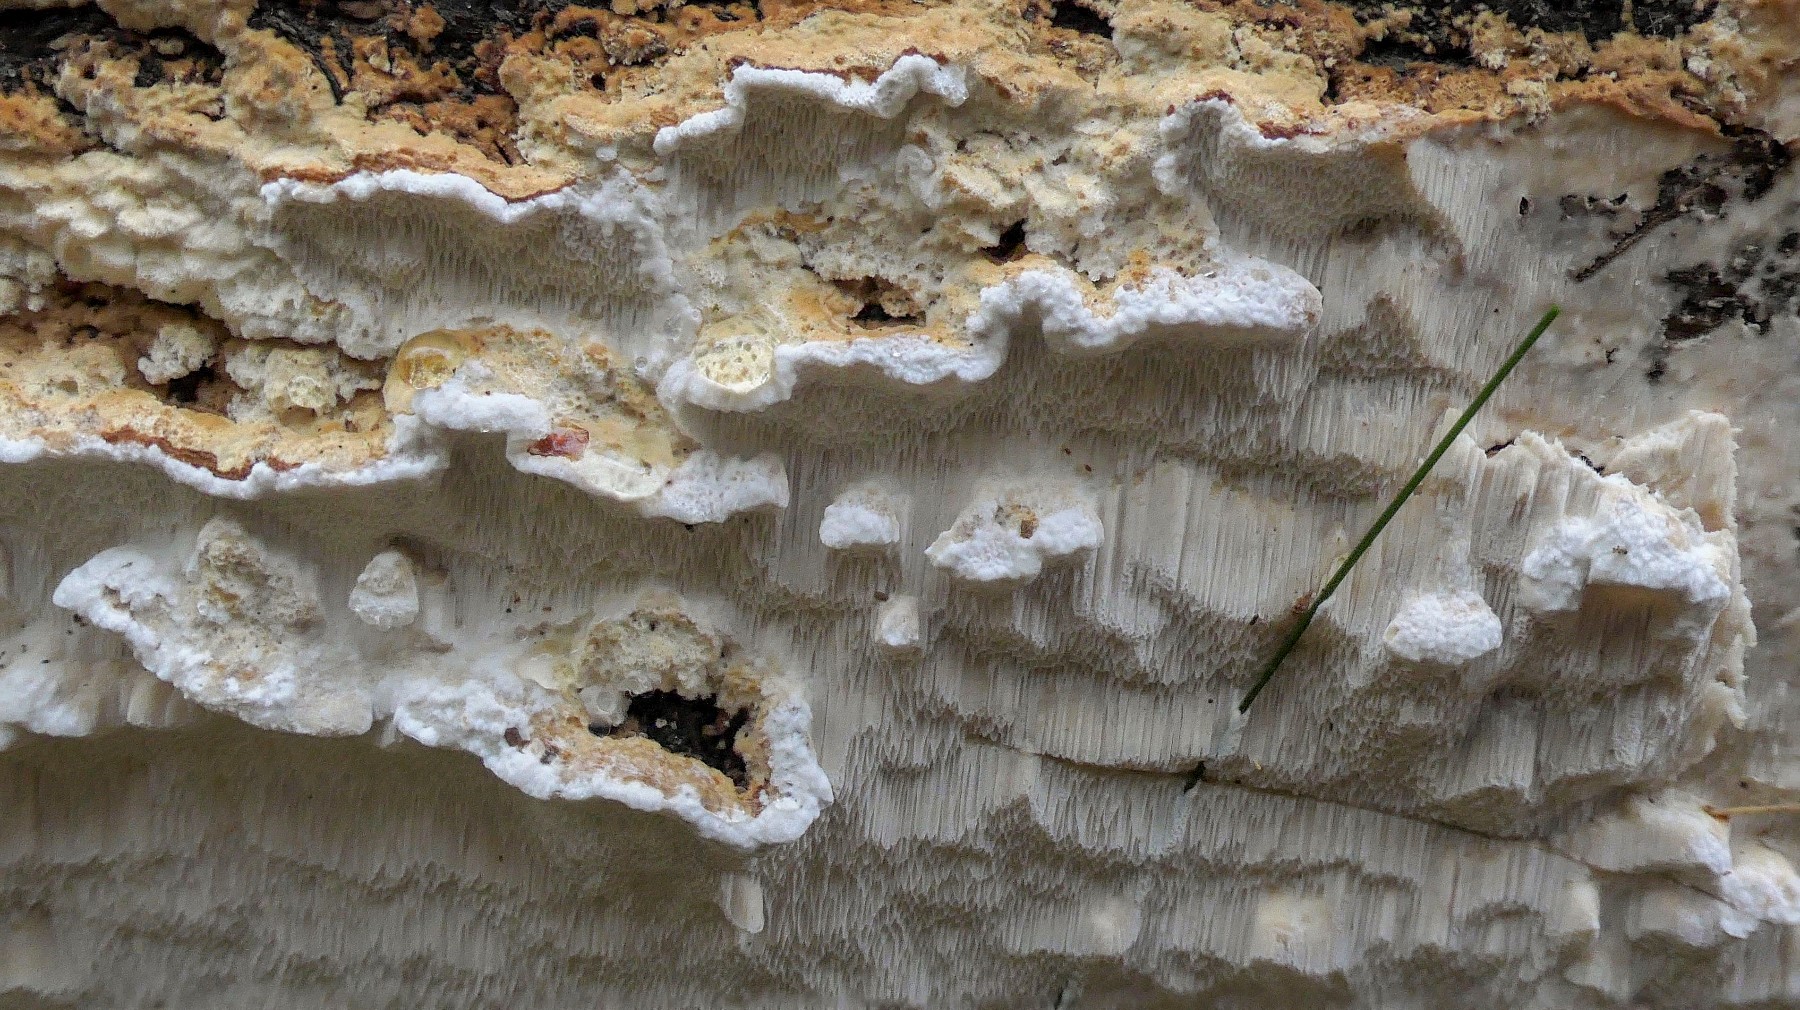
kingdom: Fungi
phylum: Basidiomycota
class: Agaricomycetes
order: Polyporales
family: Fomitopsidaceae
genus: Neoantrodia
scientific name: Neoantrodia serialis
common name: række-sejporesvamp
